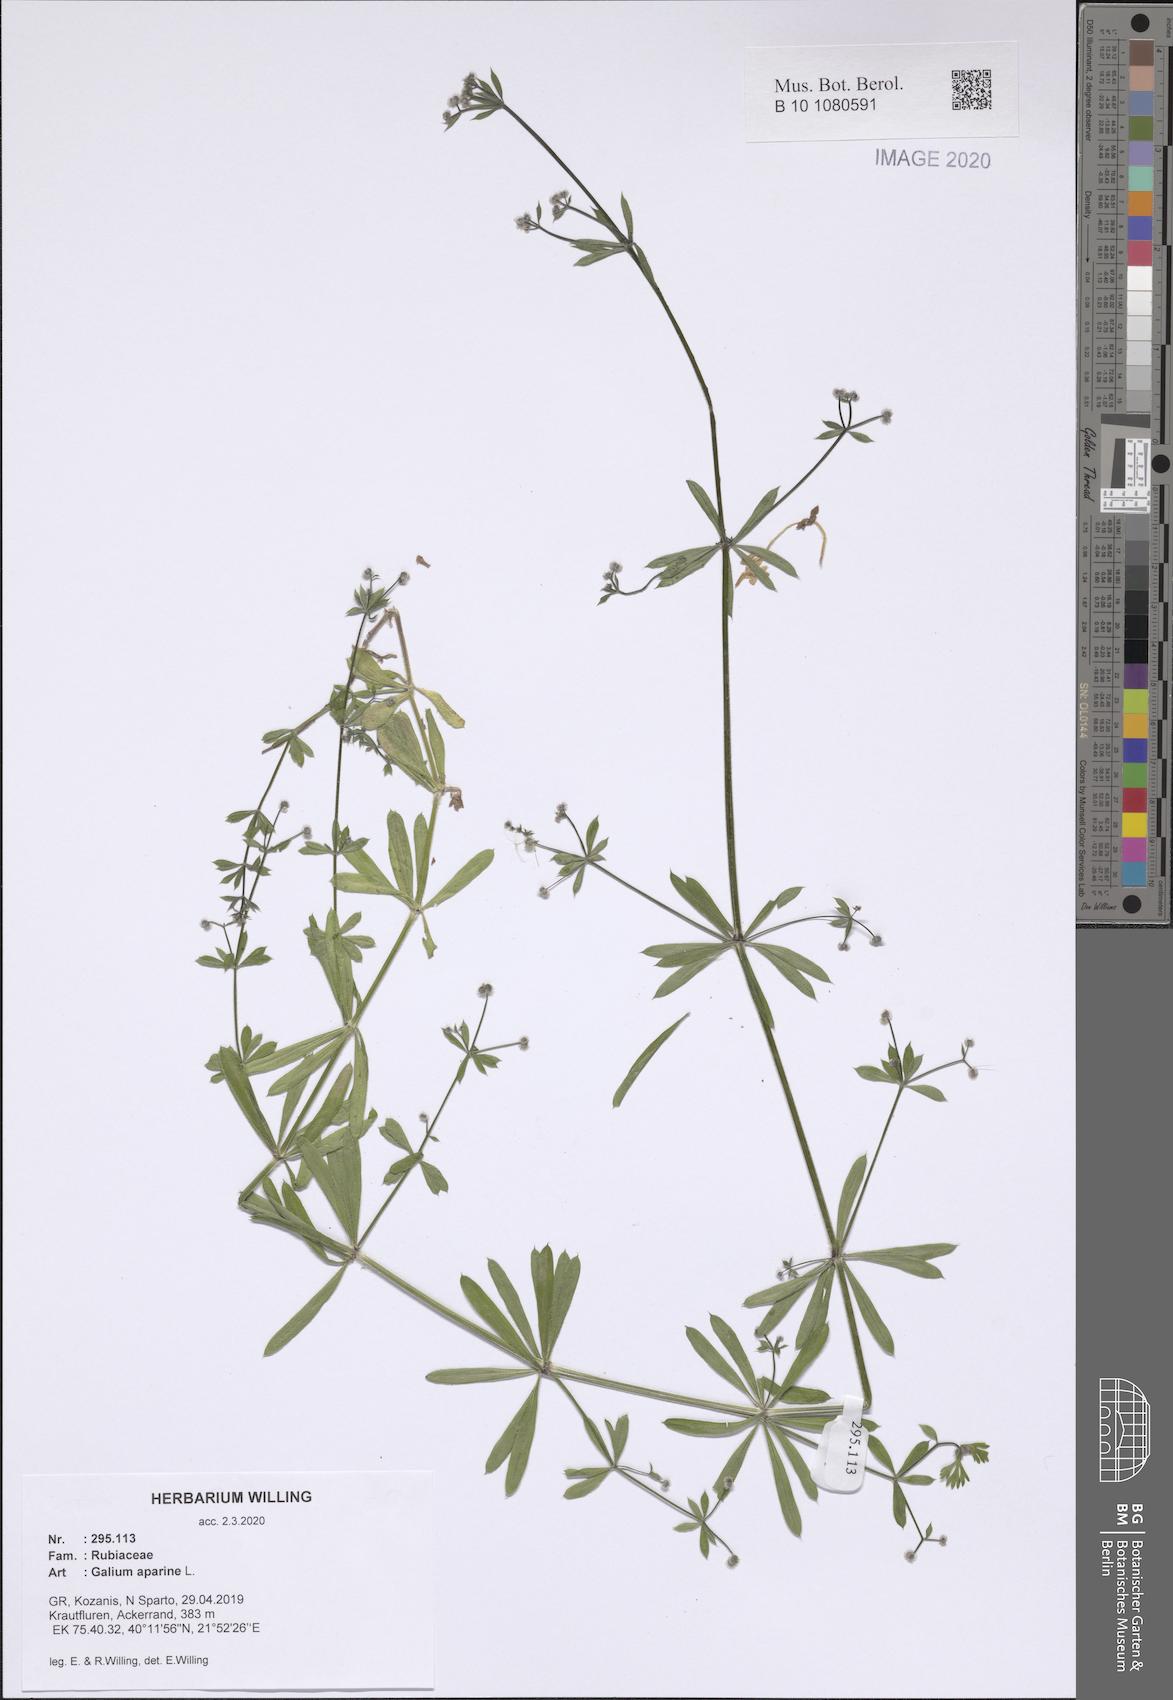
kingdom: Plantae
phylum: Tracheophyta
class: Magnoliopsida
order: Gentianales
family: Rubiaceae
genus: Galium
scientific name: Galium aparine
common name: Cleavers
